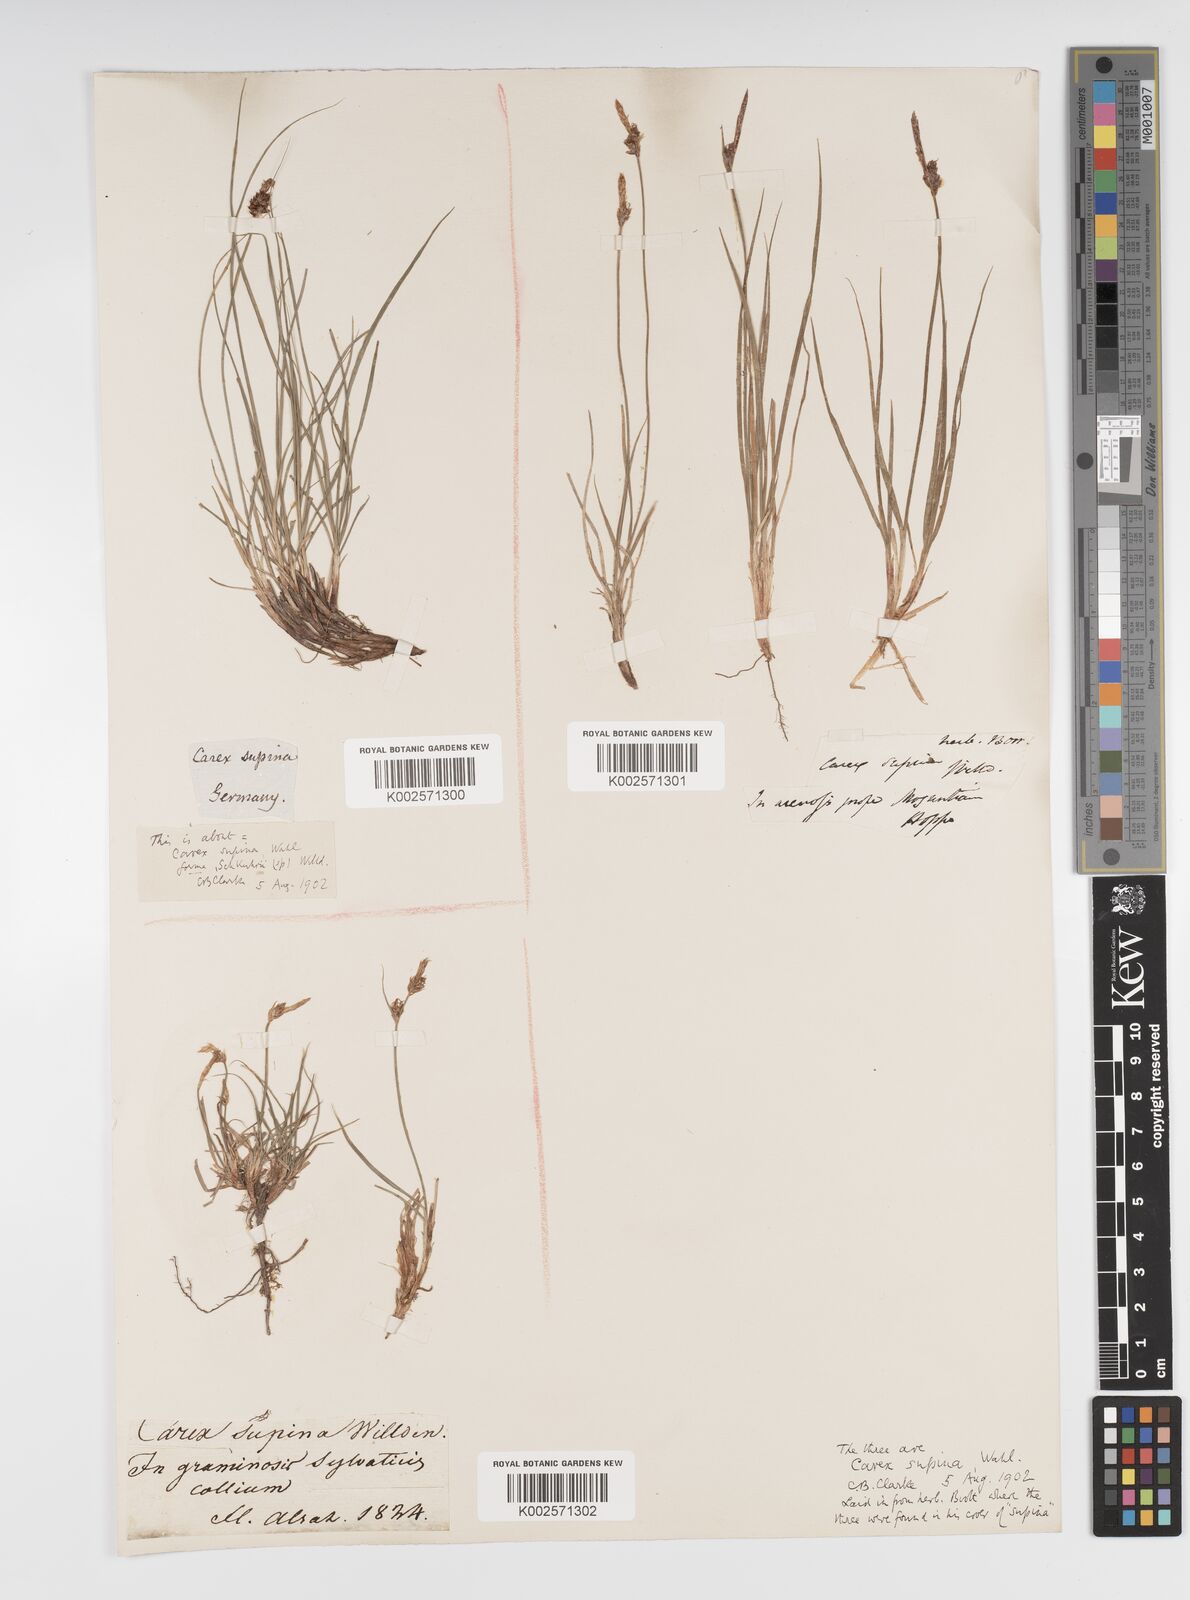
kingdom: Plantae
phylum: Tracheophyta
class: Liliopsida
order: Poales
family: Cyperaceae
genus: Carex
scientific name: Carex supina
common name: Lying-back sedge
